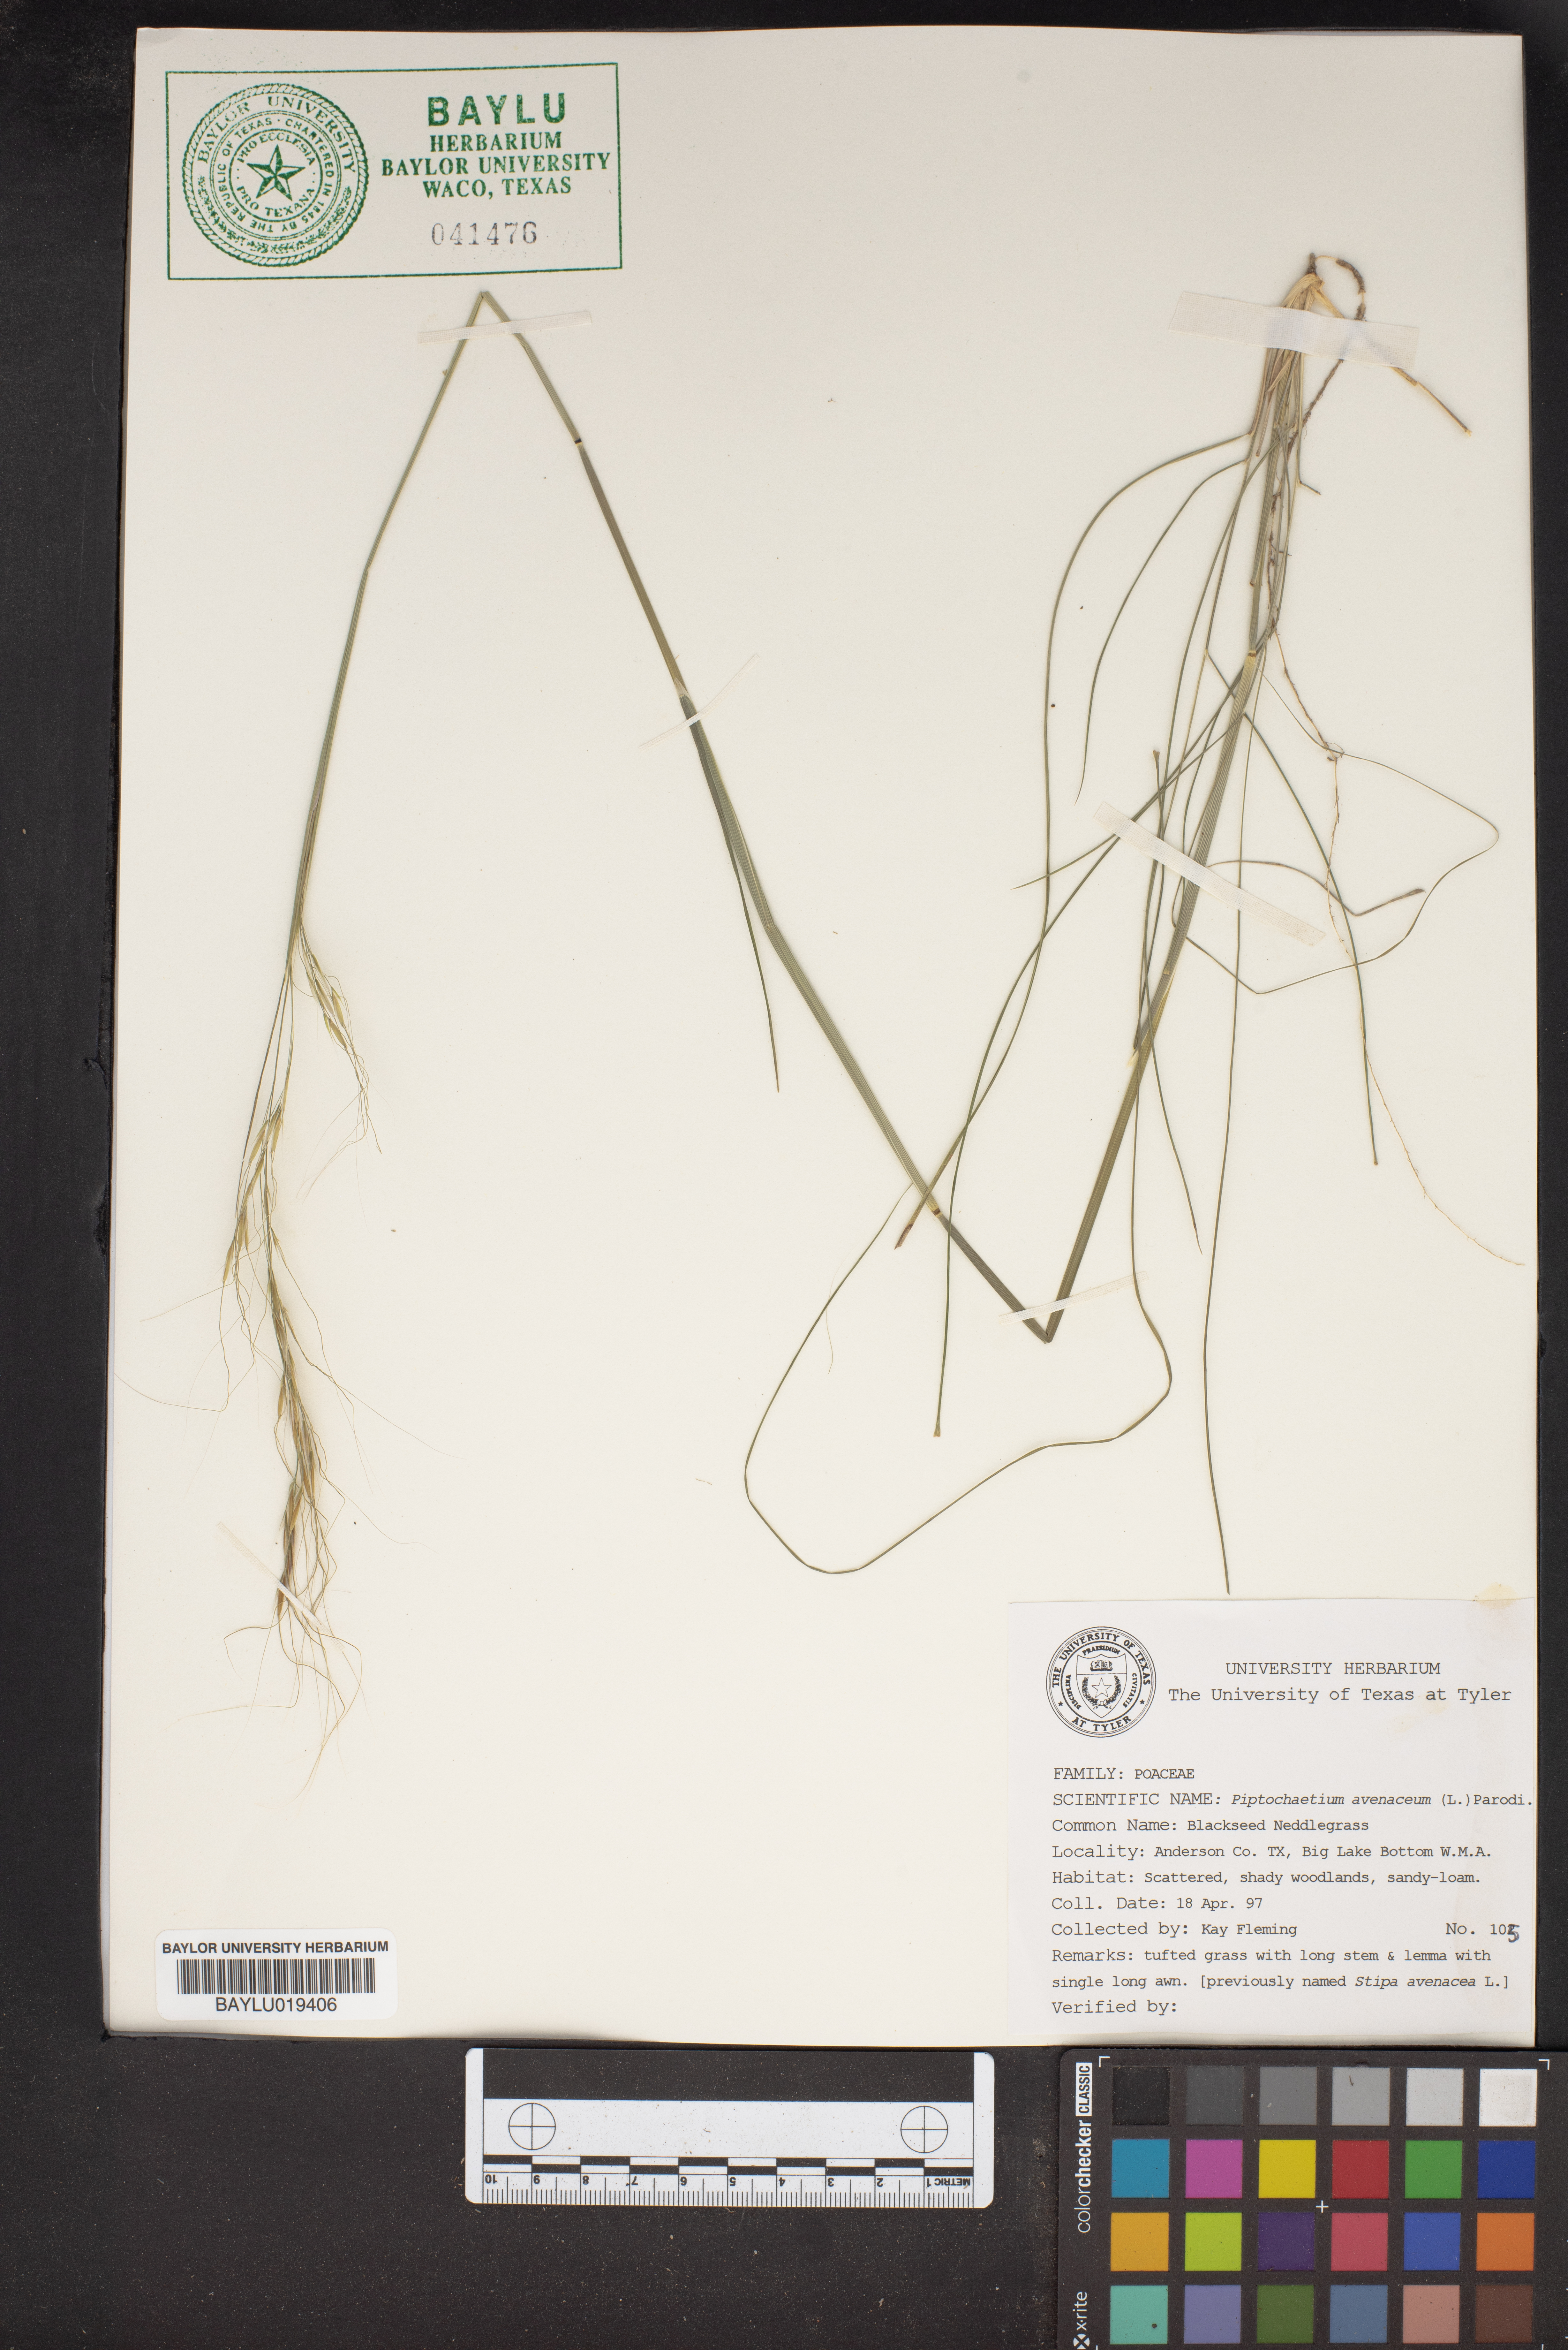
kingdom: Plantae
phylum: Tracheophyta
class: Liliopsida
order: Poales
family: Poaceae
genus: Piptochaetium
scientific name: Piptochaetium avenaceum
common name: Black bunchgrass
